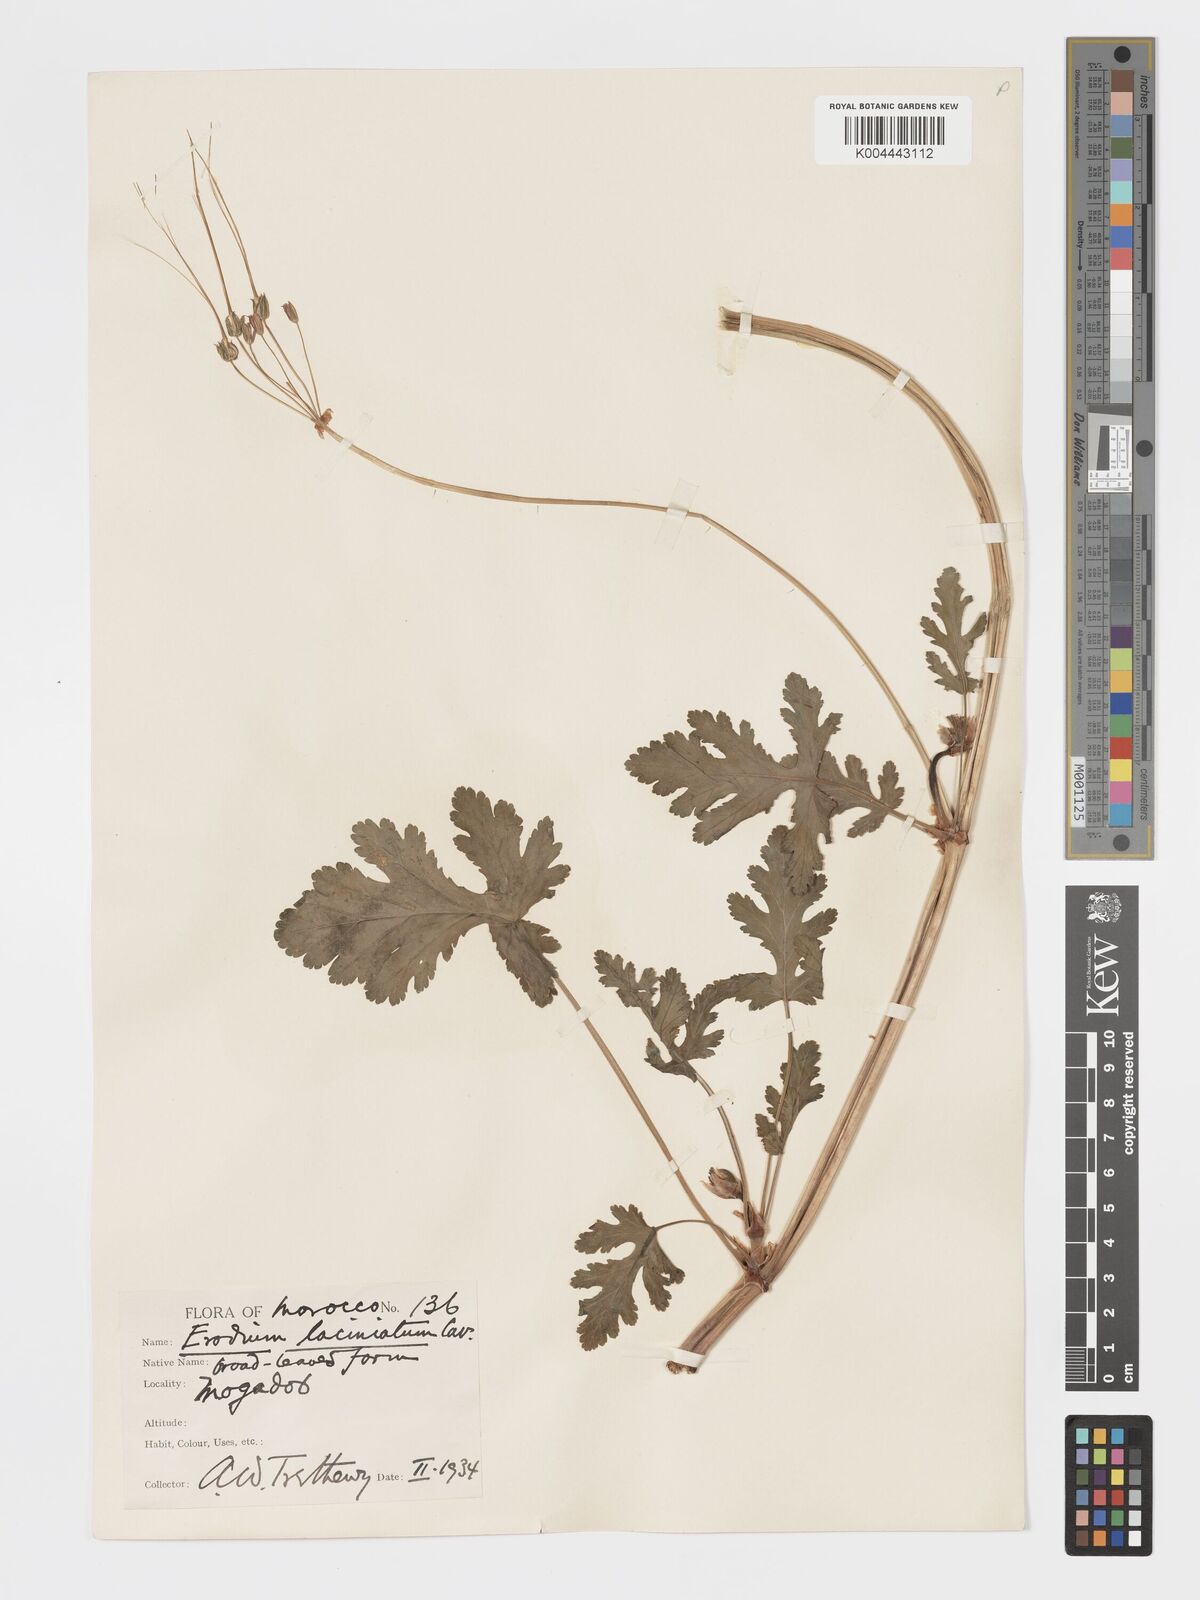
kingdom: Plantae
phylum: Tracheophyta
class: Magnoliopsida
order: Geraniales
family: Geraniaceae
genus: Erodium
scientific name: Erodium hesperium
